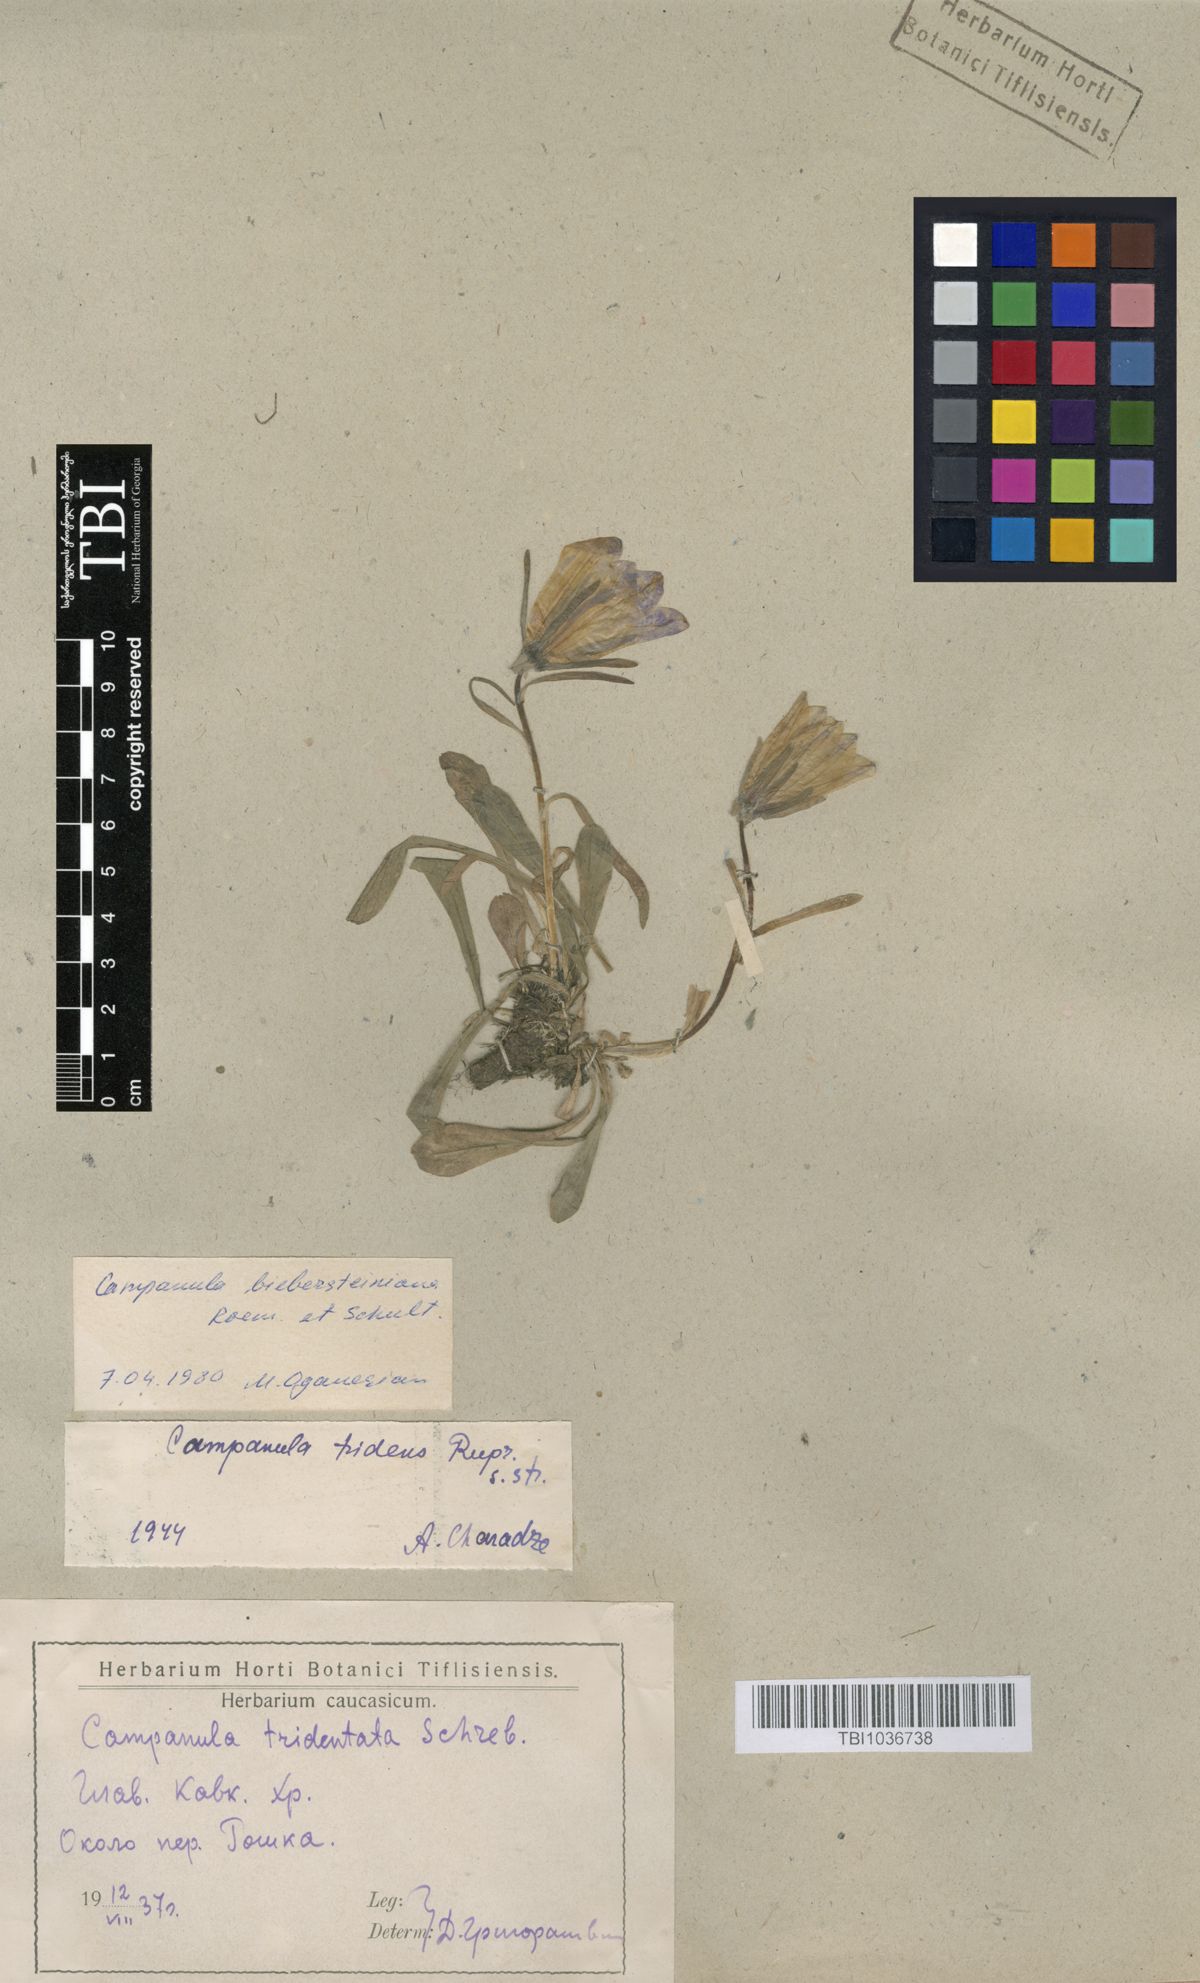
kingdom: Plantae
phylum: Tracheophyta
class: Magnoliopsida
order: Asterales
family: Campanulaceae
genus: Campanula
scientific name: Campanula tridentata
